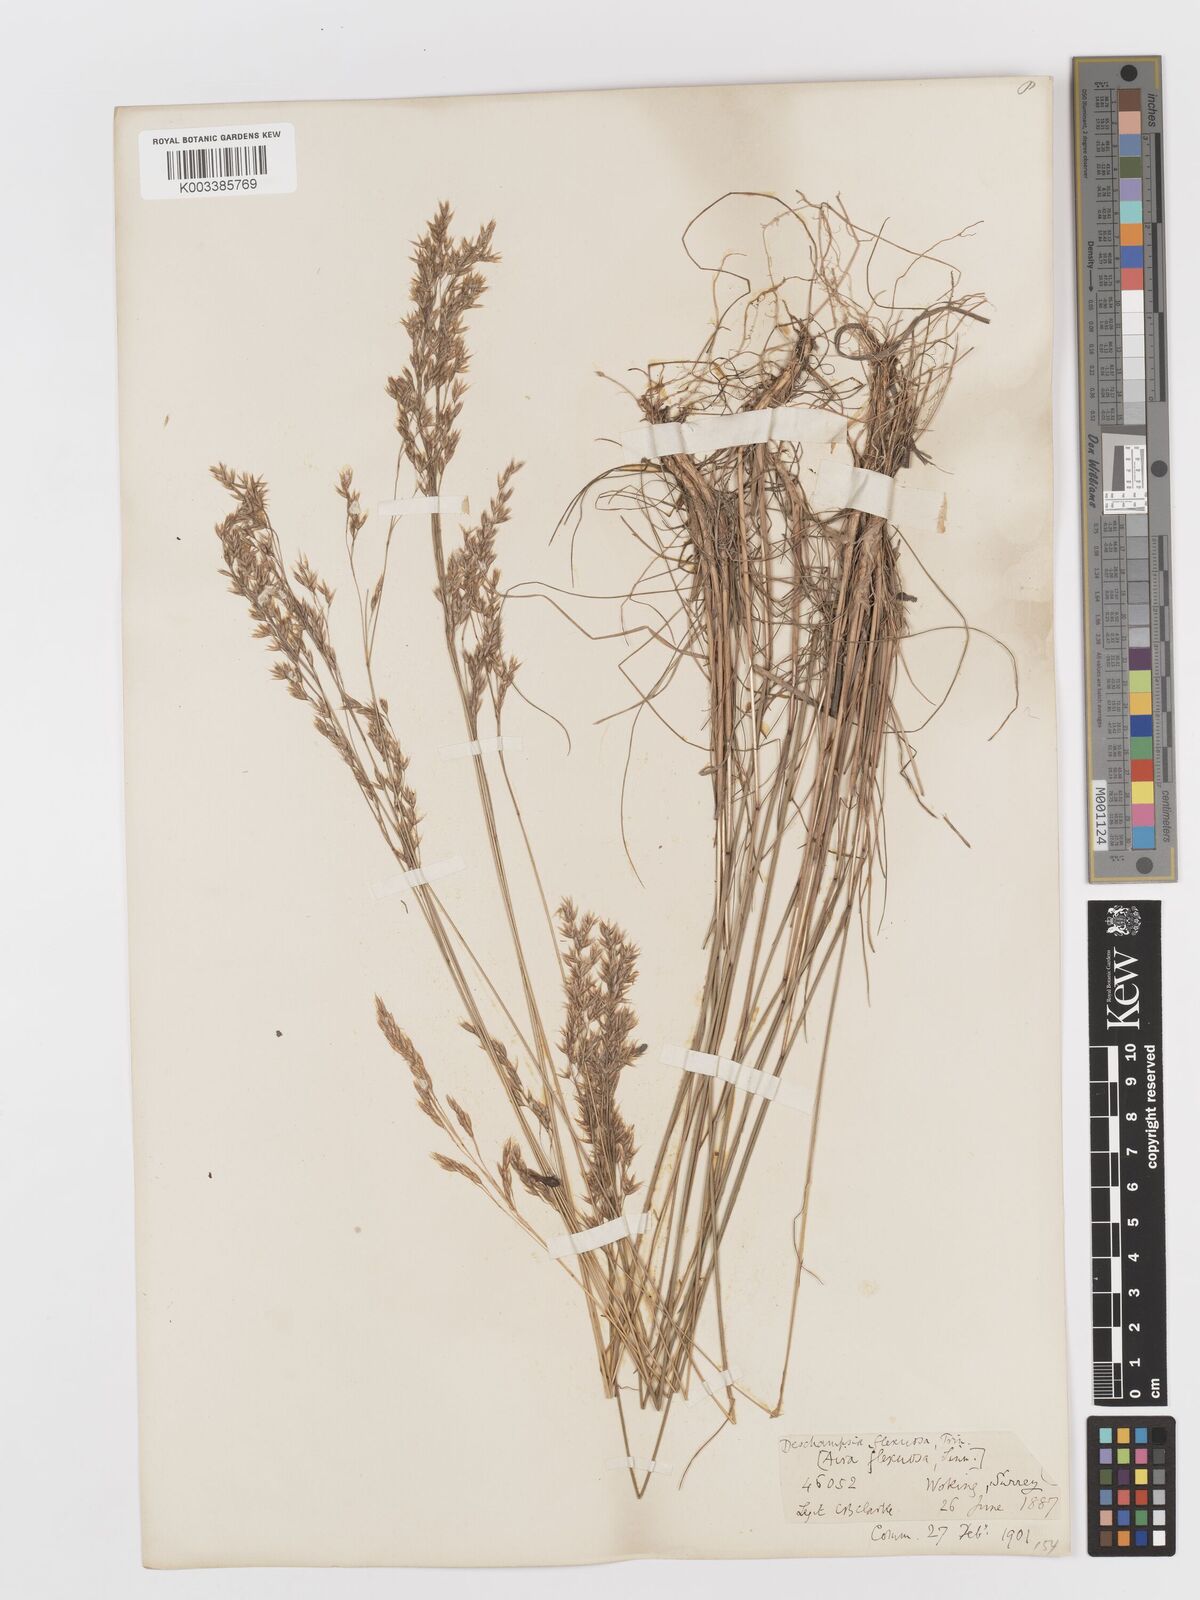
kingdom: Plantae
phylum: Tracheophyta
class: Liliopsida
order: Poales
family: Poaceae
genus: Avenella
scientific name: Avenella flexuosa
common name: Wavy hairgrass
